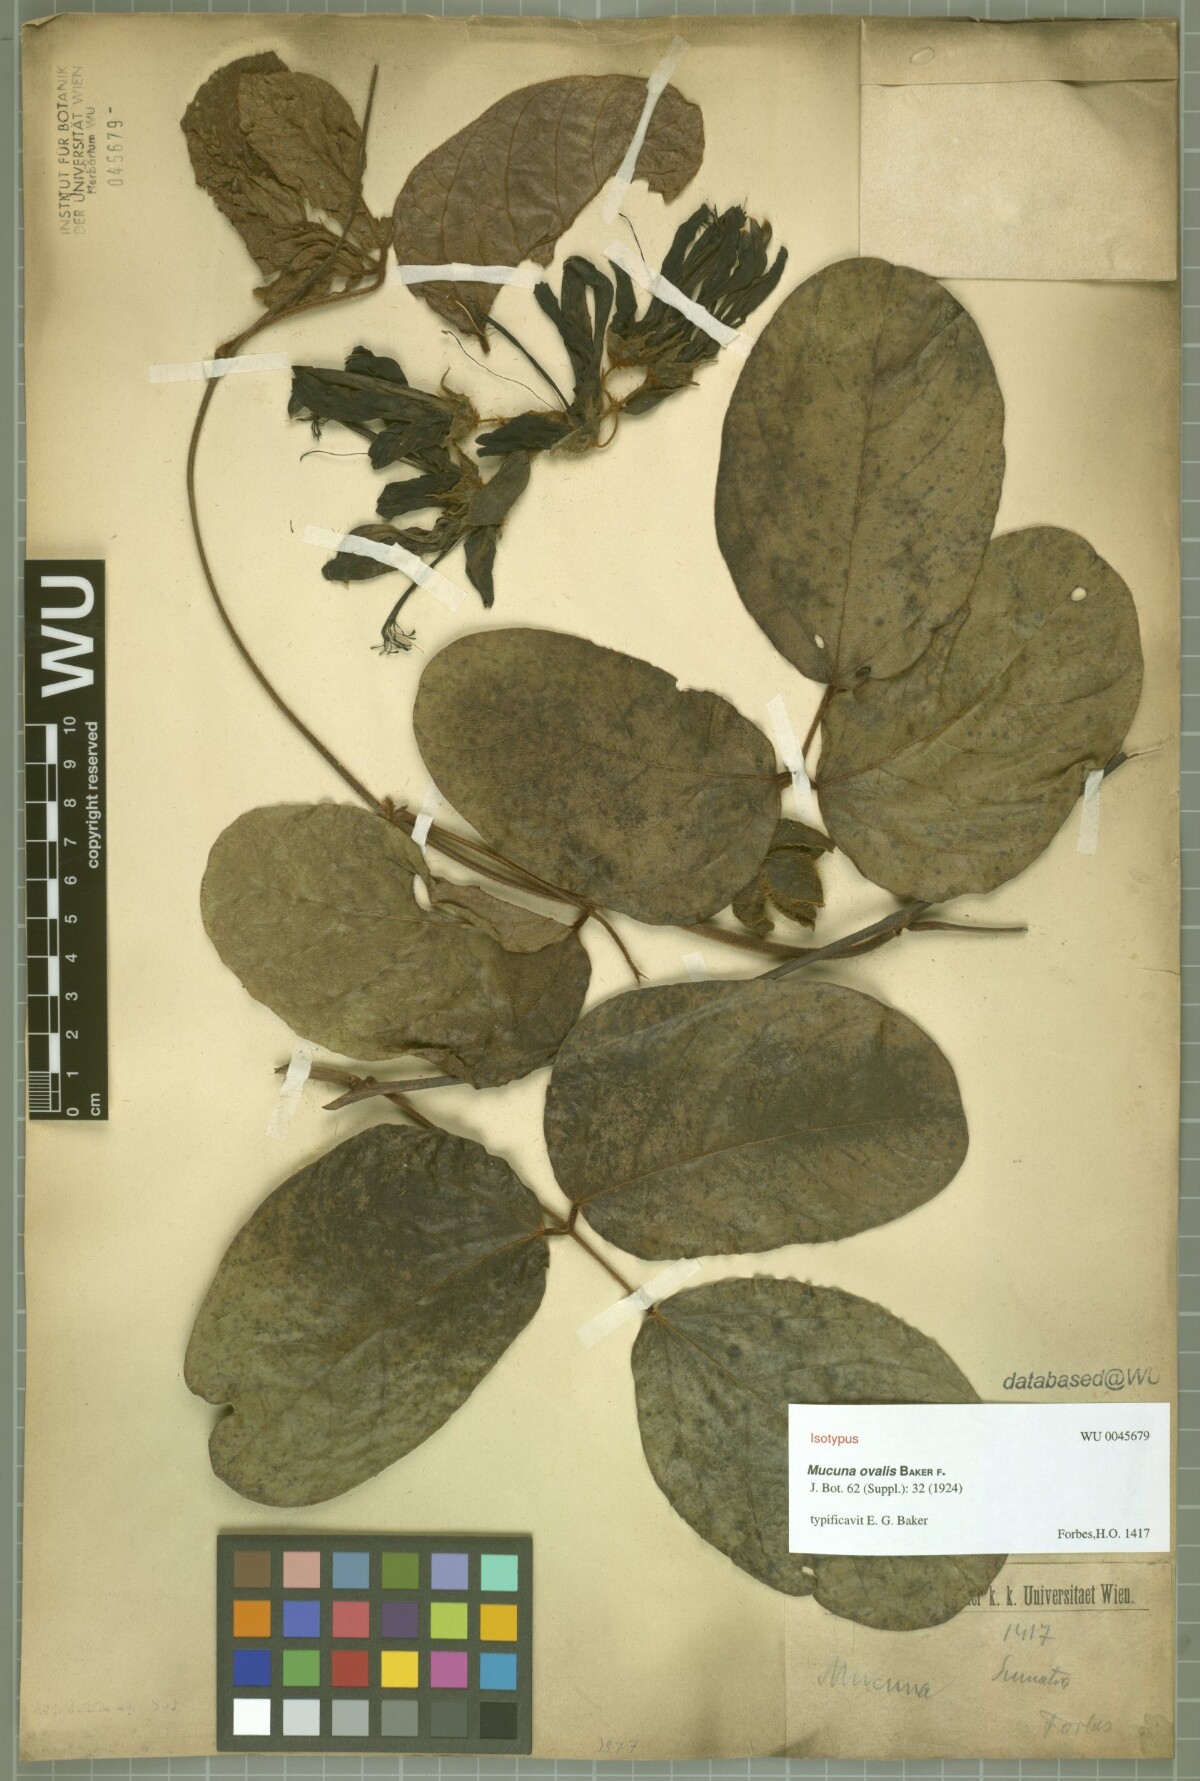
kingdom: Plantae
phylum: Tracheophyta
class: Magnoliopsida
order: Fabales
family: Fabaceae
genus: Mucuna
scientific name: Mucuna macrophylla
